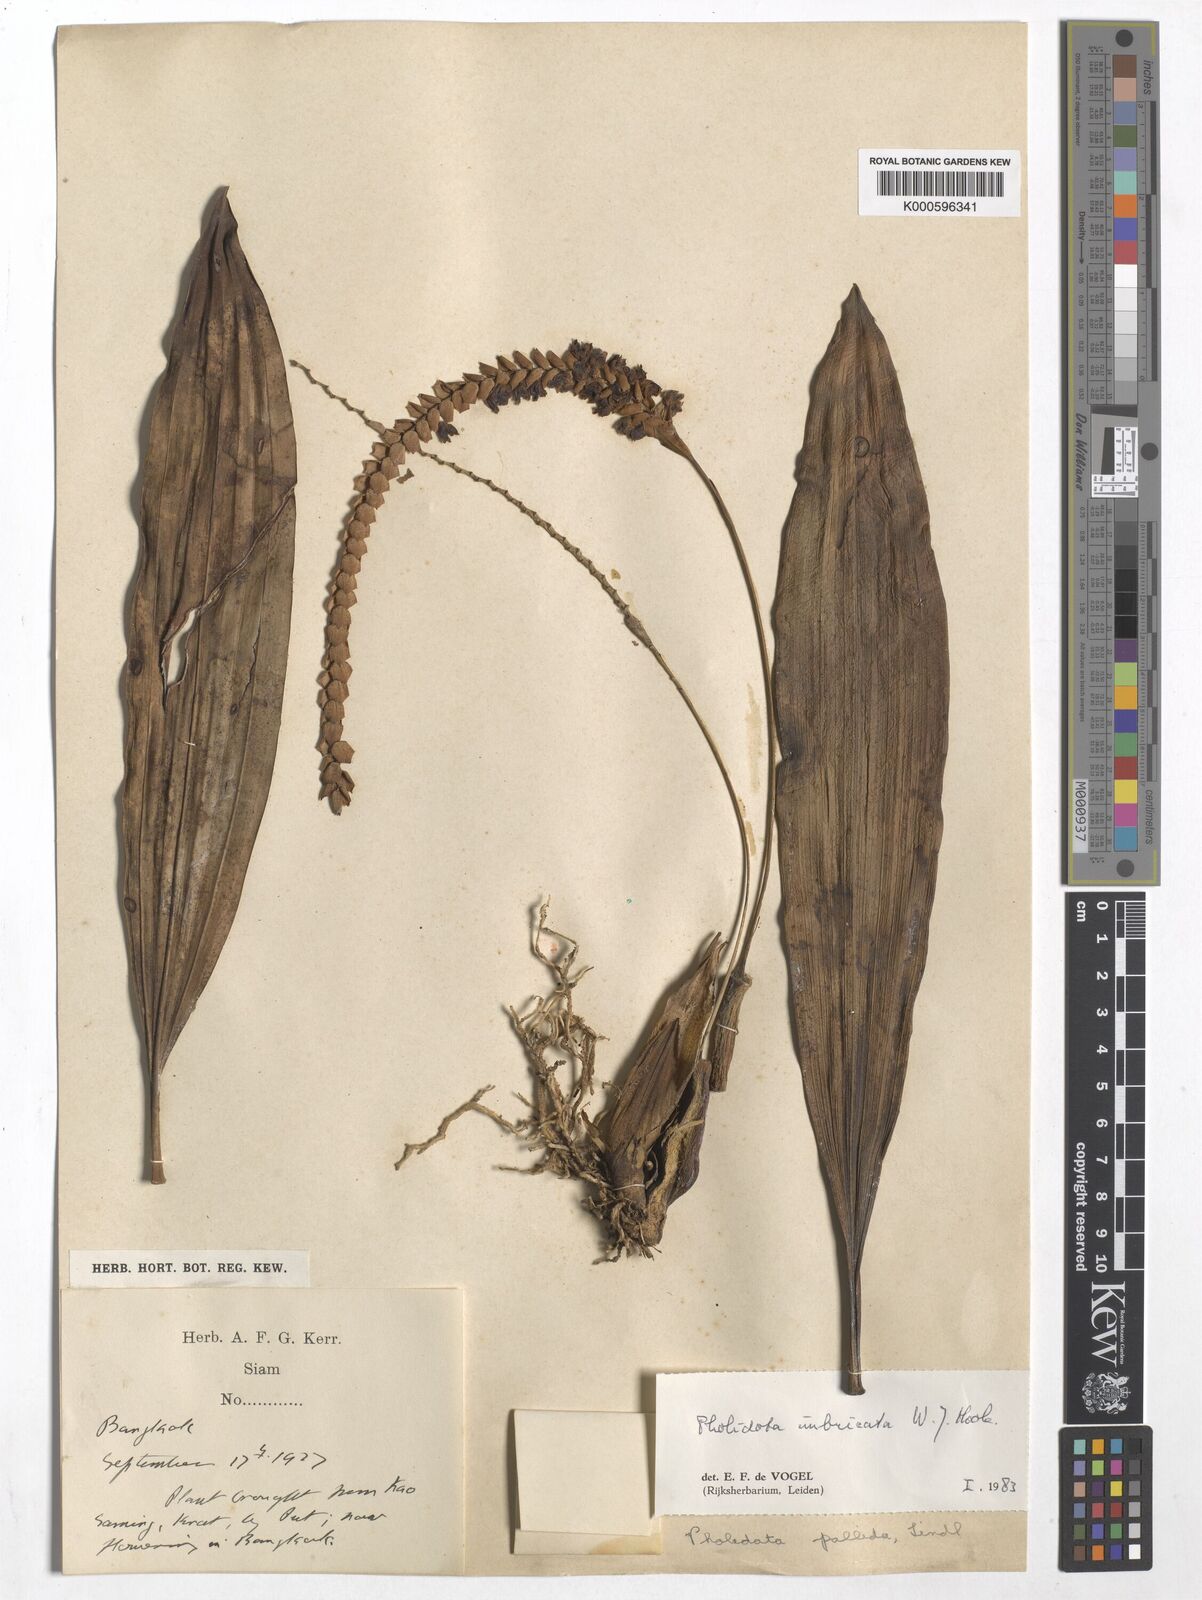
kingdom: Plantae
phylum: Tracheophyta
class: Liliopsida
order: Asparagales
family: Orchidaceae
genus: Coelogyne
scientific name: Coelogyne imbricata
